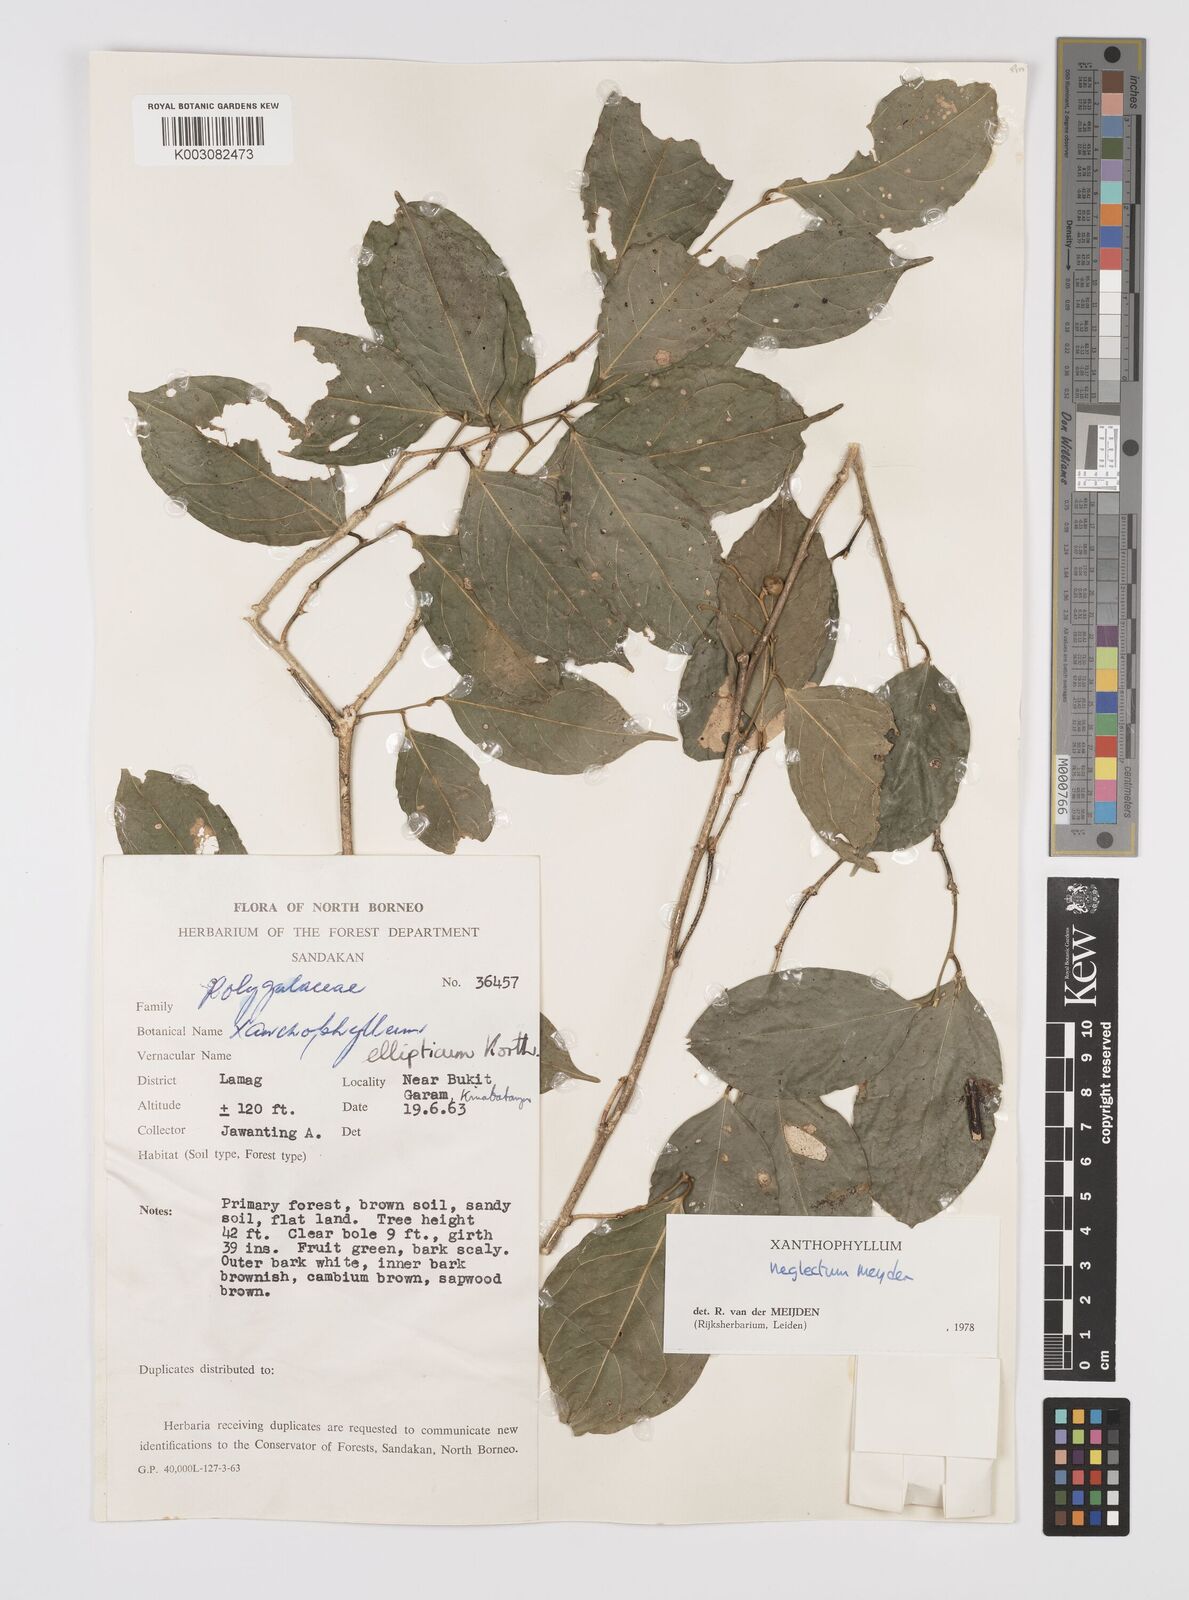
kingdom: Plantae
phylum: Tracheophyta
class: Magnoliopsida
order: Fabales
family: Polygalaceae
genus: Xanthophyllum
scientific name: Xanthophyllum neglectum
